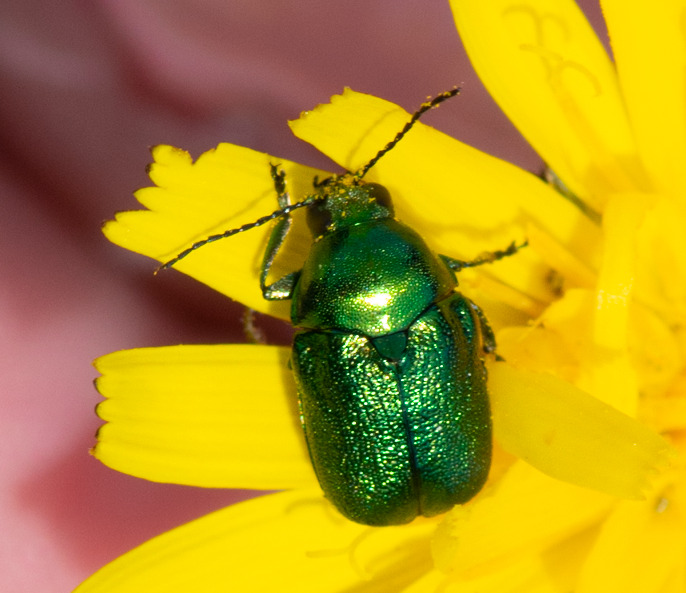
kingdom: Animalia
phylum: Arthropoda
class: Insecta
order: Coleoptera
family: Chrysomelidae
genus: Cryptocephalus
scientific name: Cryptocephalus sericeus
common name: Silkeglinsende faldbille
